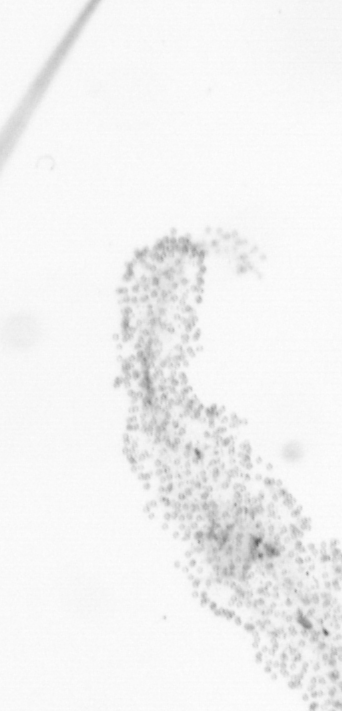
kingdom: Chromista
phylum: Ochrophyta
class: Bacillariophyceae
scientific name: Bacillariophyceae
